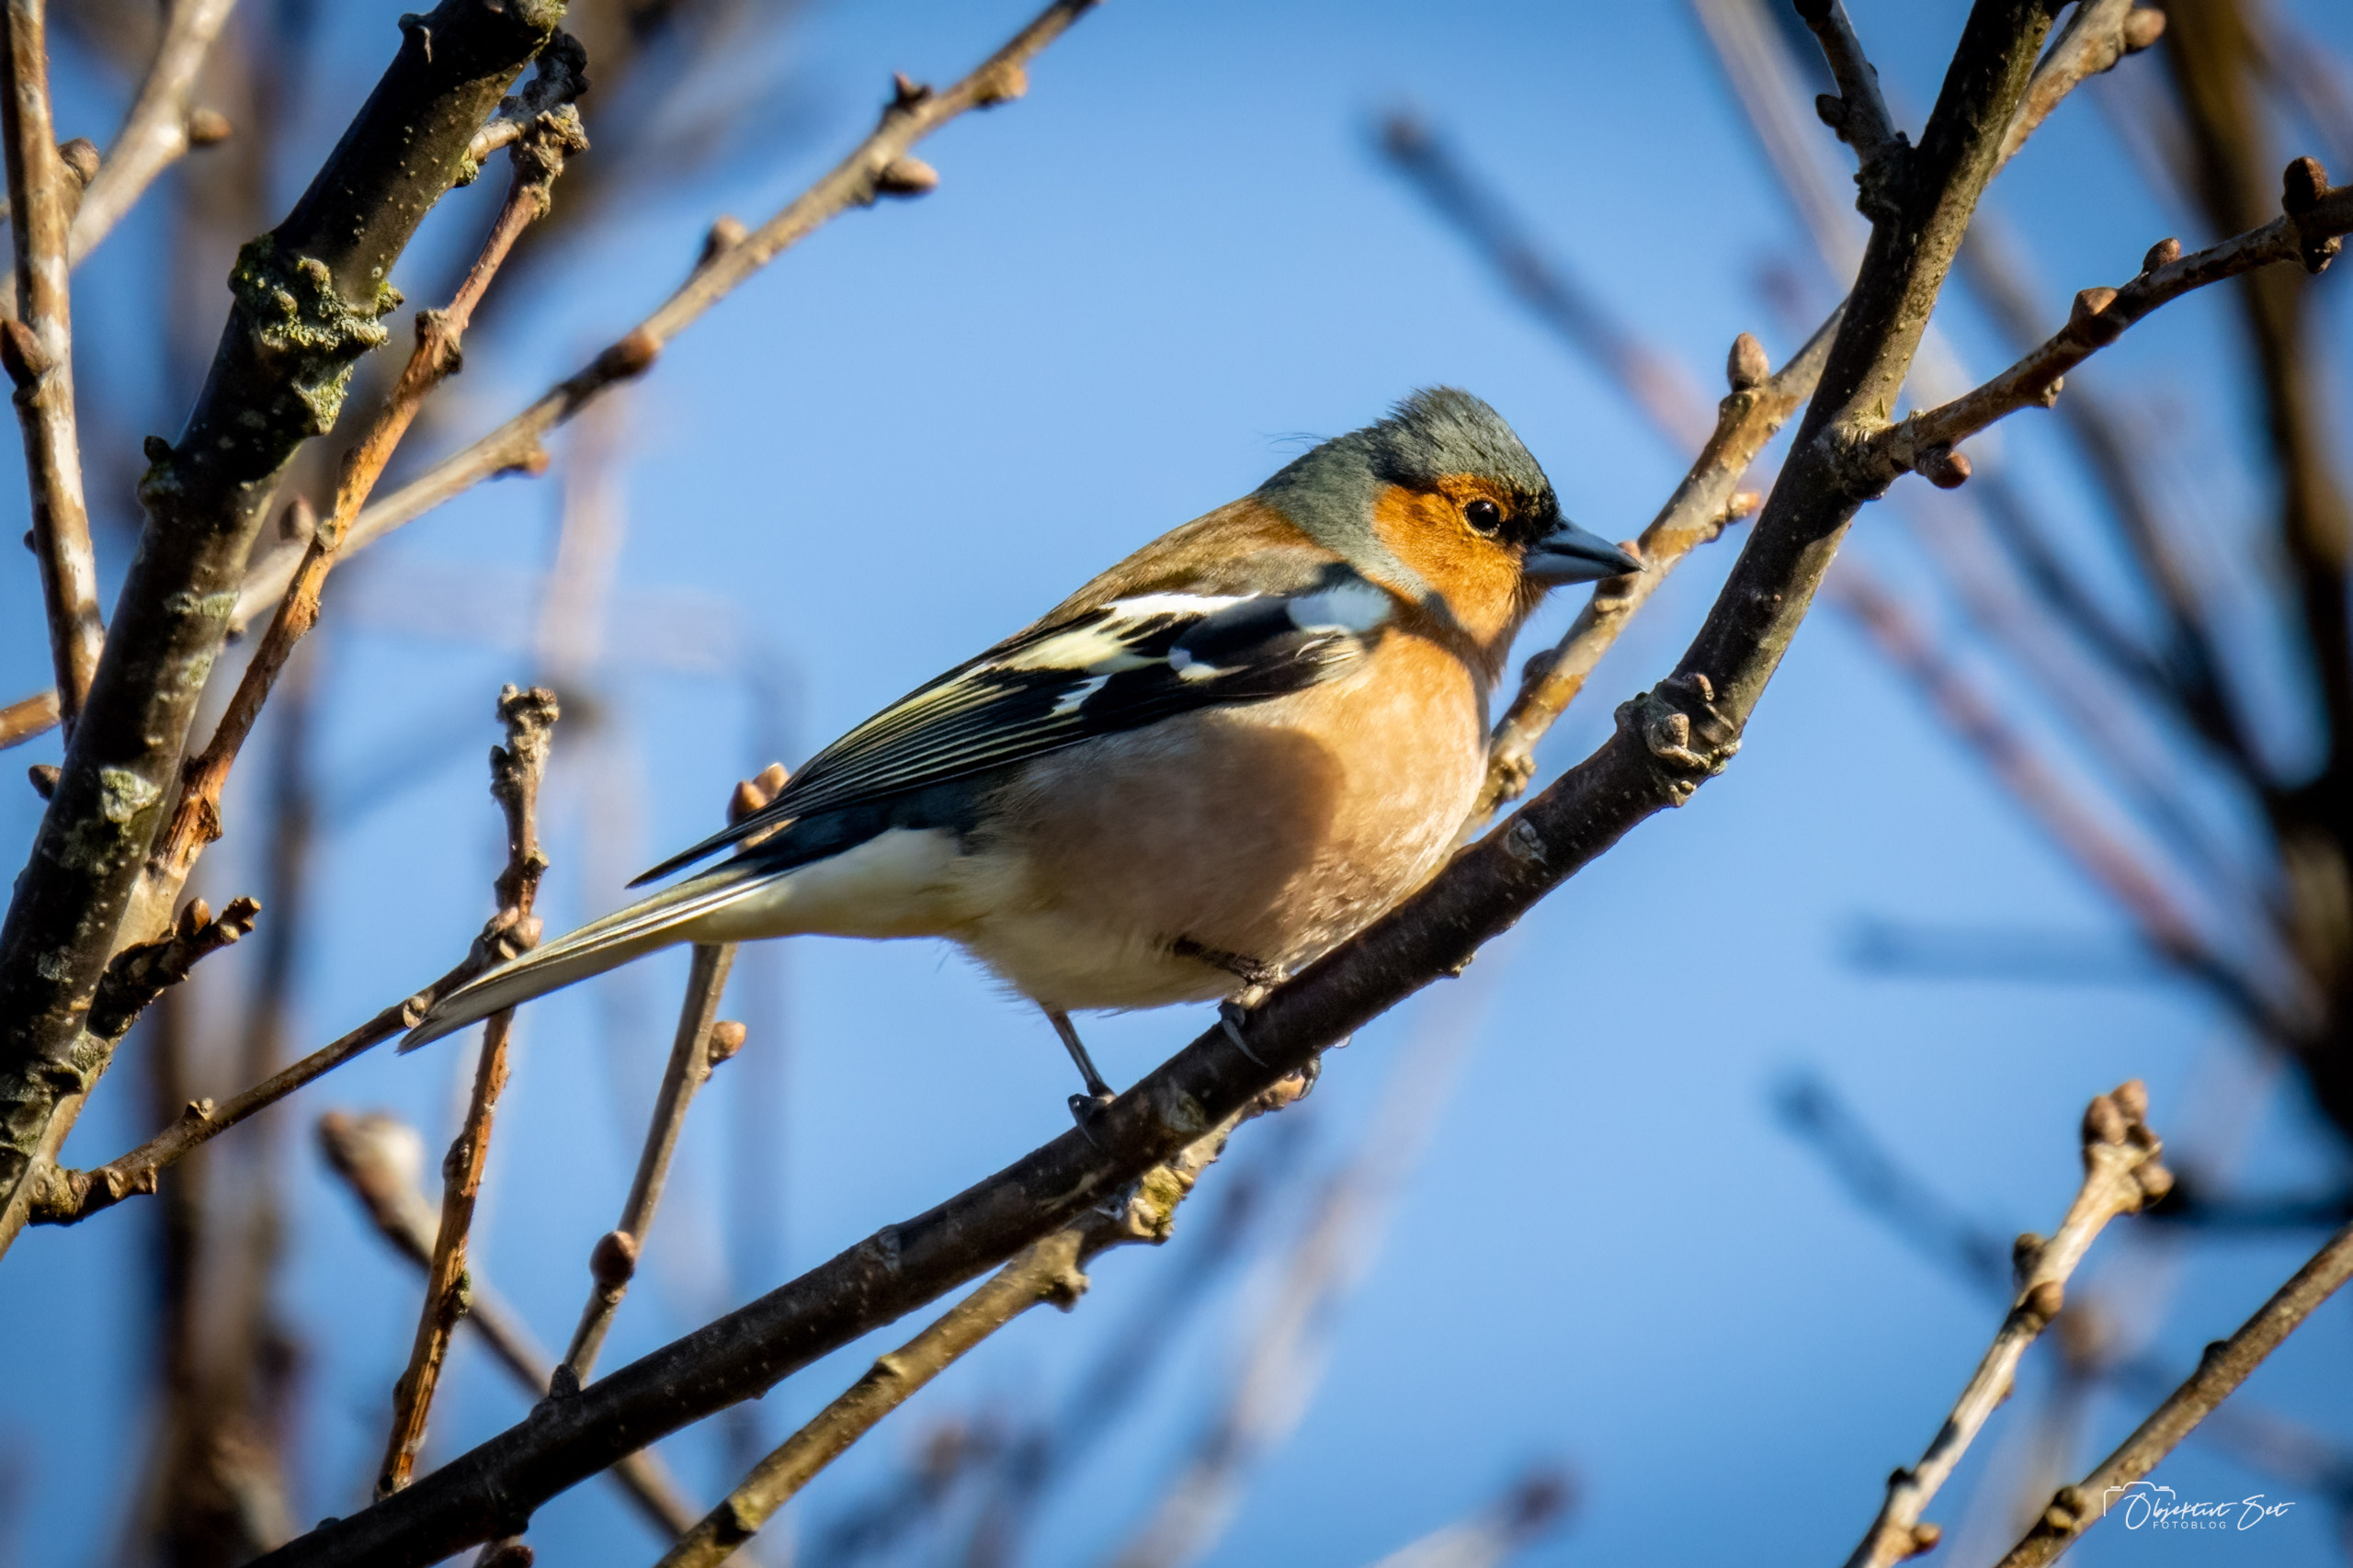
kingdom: Animalia
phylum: Chordata
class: Aves
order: Passeriformes
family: Fringillidae
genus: Fringilla
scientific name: Fringilla coelebs
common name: Bogfinke
